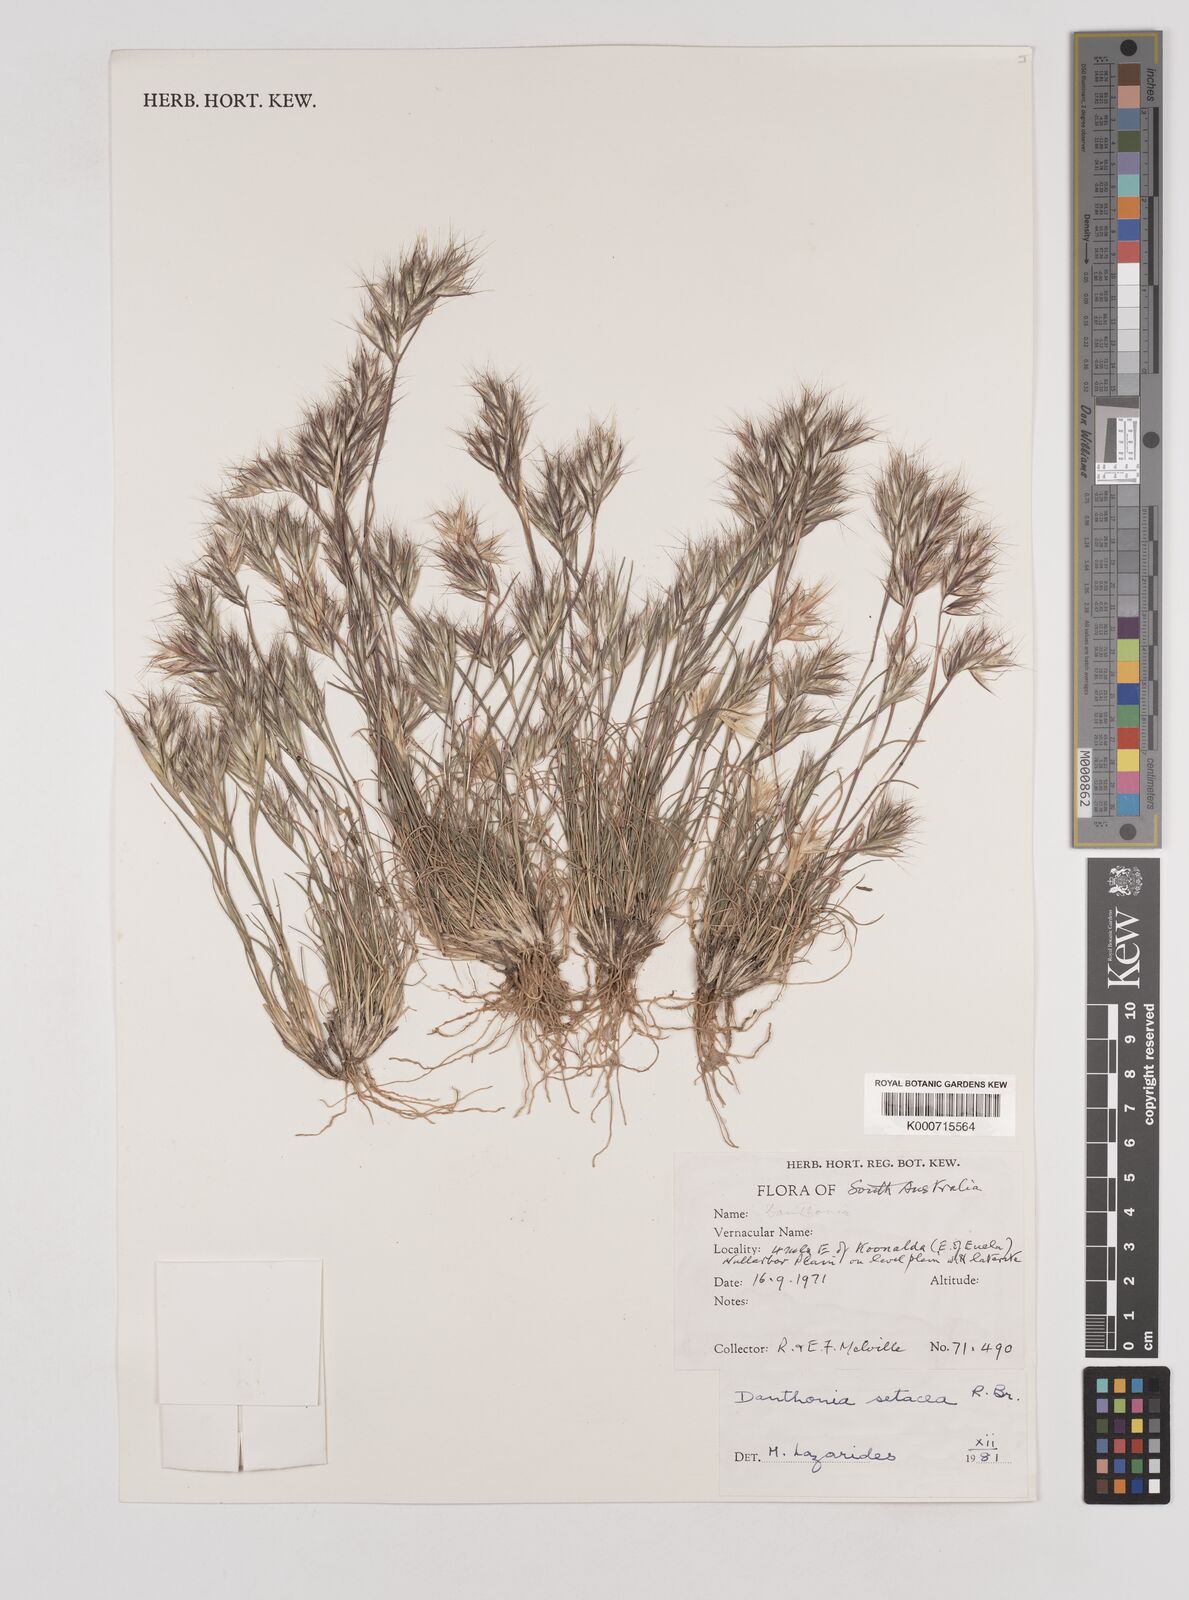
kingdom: Plantae
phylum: Tracheophyta
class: Liliopsida
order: Poales
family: Poaceae
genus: Rytidosperma
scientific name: Rytidosperma setaceum
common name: Small-flower wallaby grass
